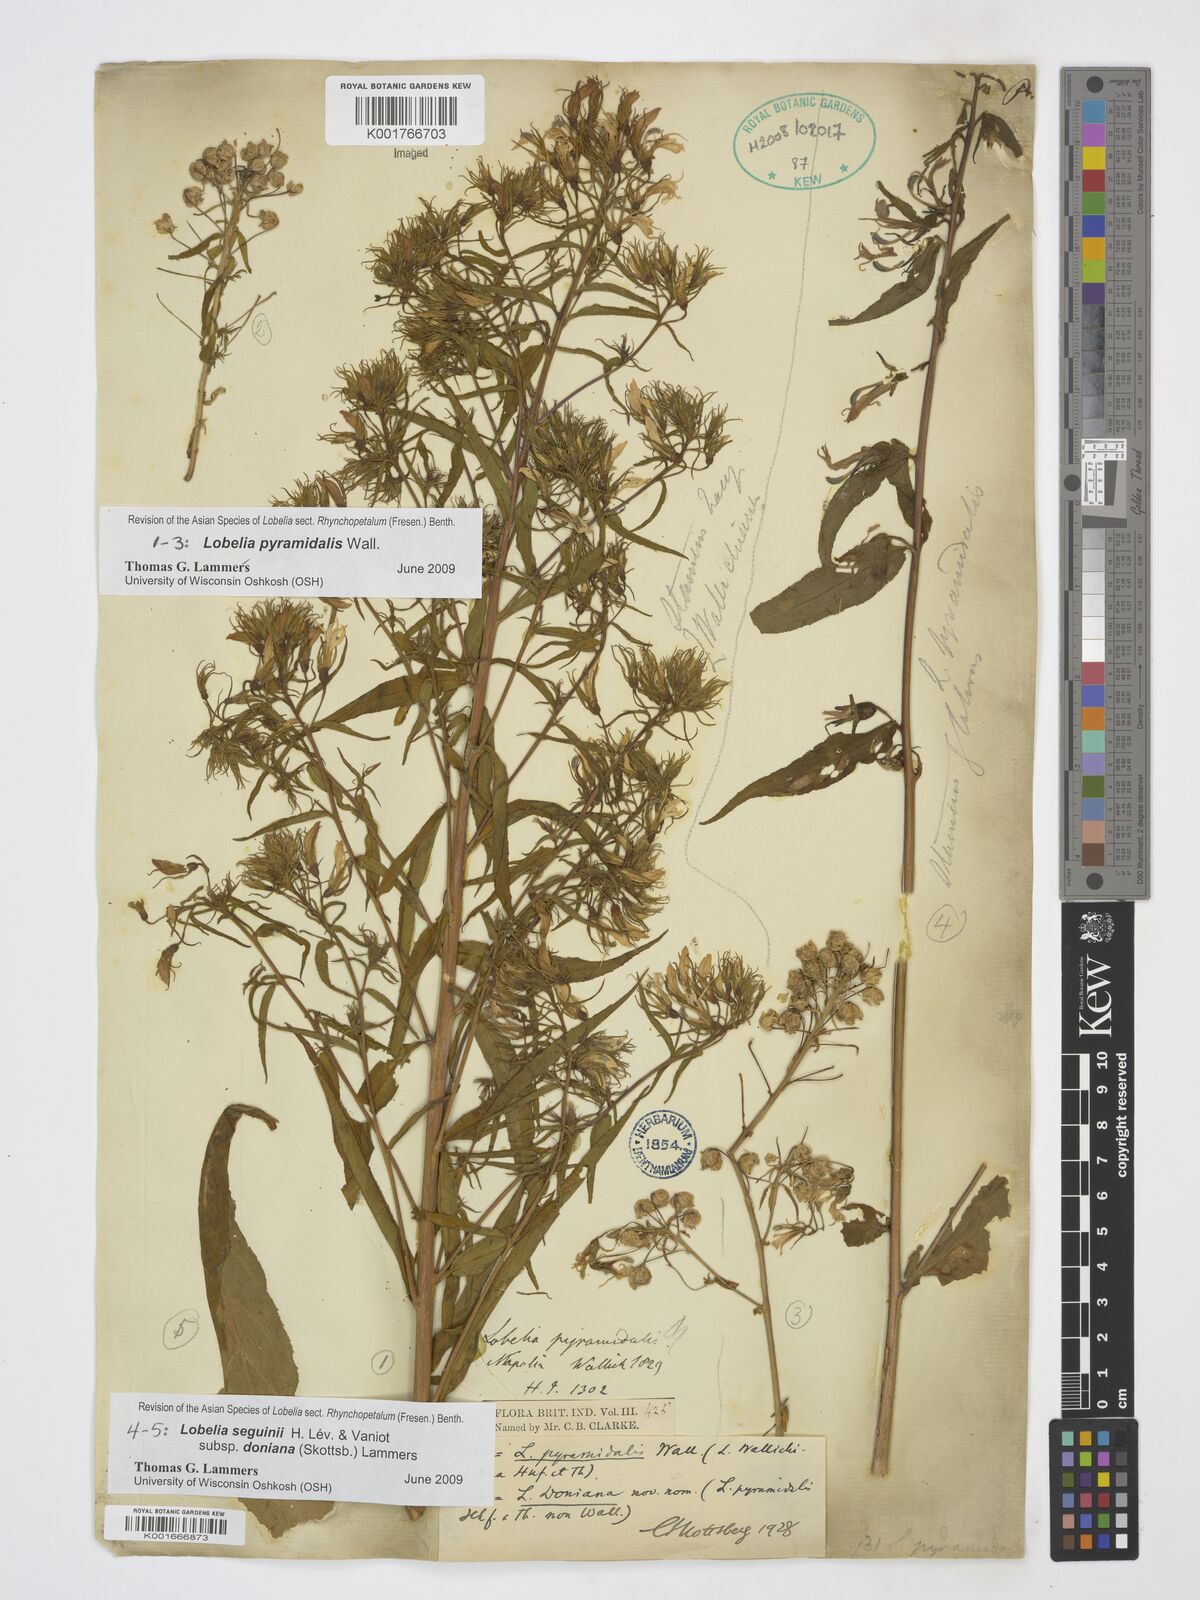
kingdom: Plantae
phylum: Tracheophyta
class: Magnoliopsida
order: Asterales
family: Campanulaceae
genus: Lobelia
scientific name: Lobelia seguinii
